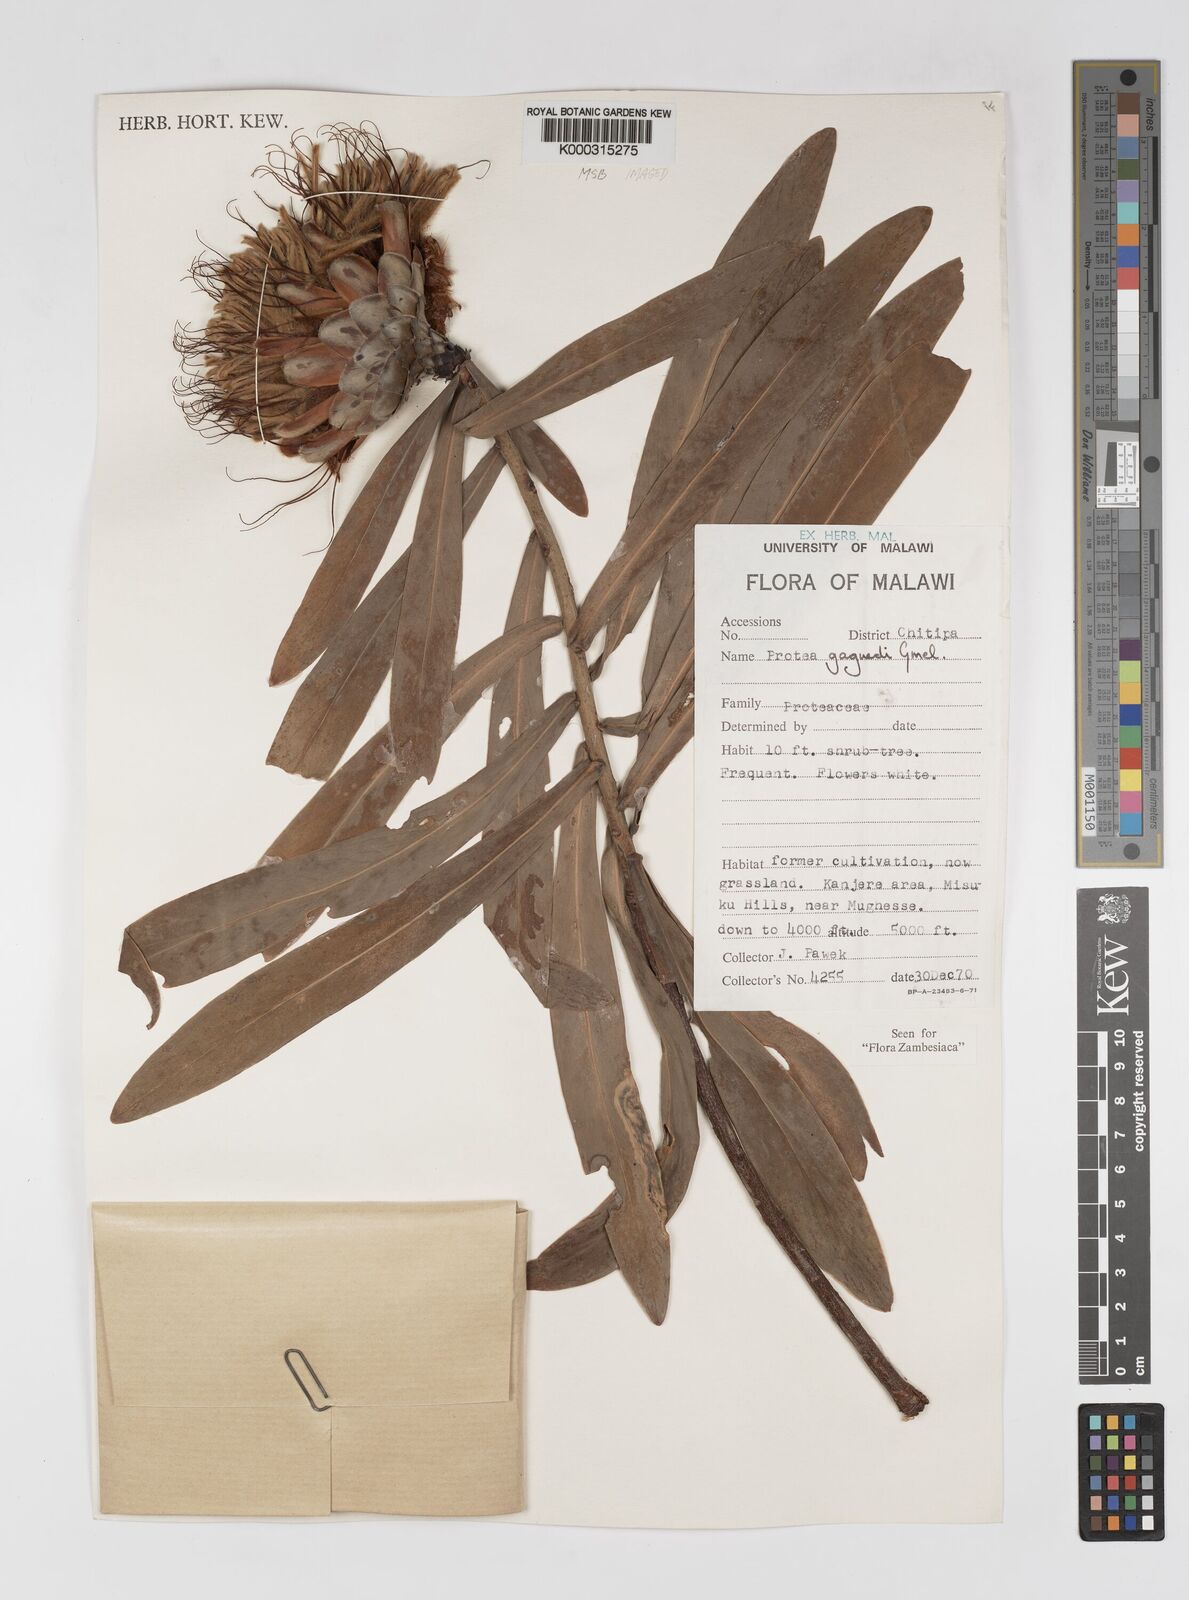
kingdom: Plantae
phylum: Tracheophyta
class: Magnoliopsida
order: Proteales
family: Proteaceae
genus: Protea
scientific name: Protea gaguedi
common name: African protea
